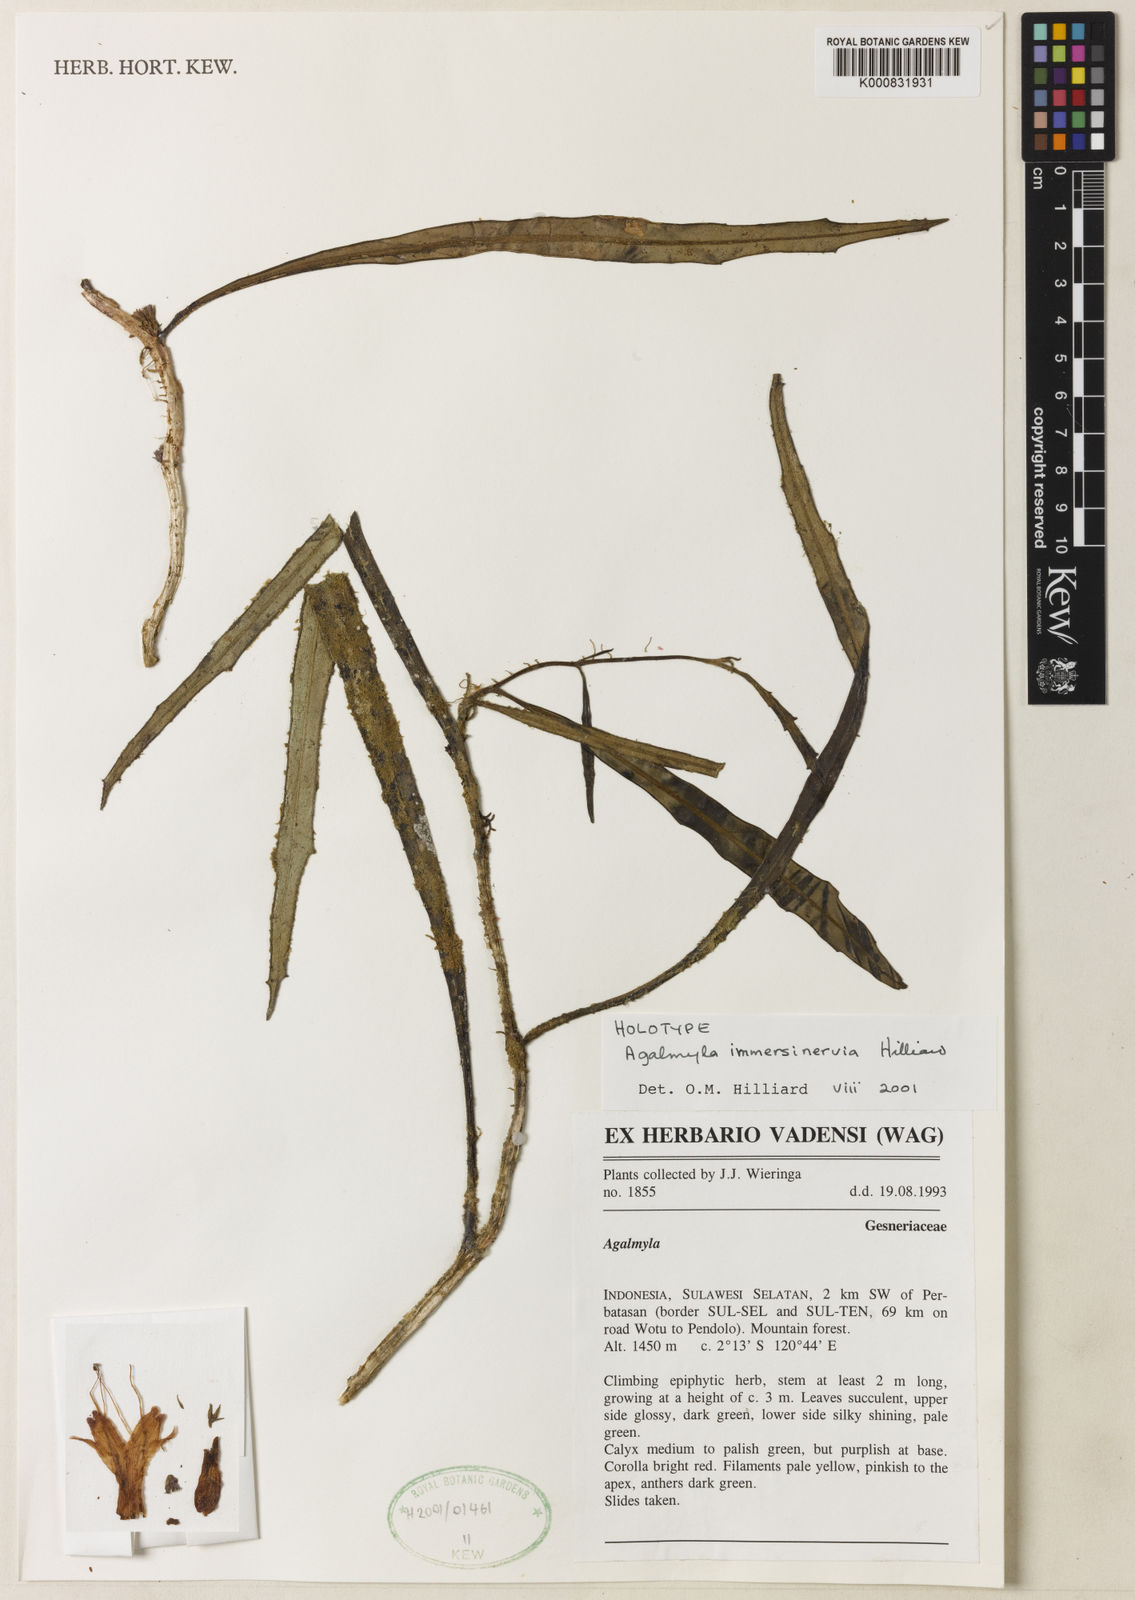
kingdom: Plantae
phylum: Tracheophyta
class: Magnoliopsida
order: Lamiales
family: Gesneriaceae
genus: Agalmyla
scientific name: Agalmyla immersinervia
